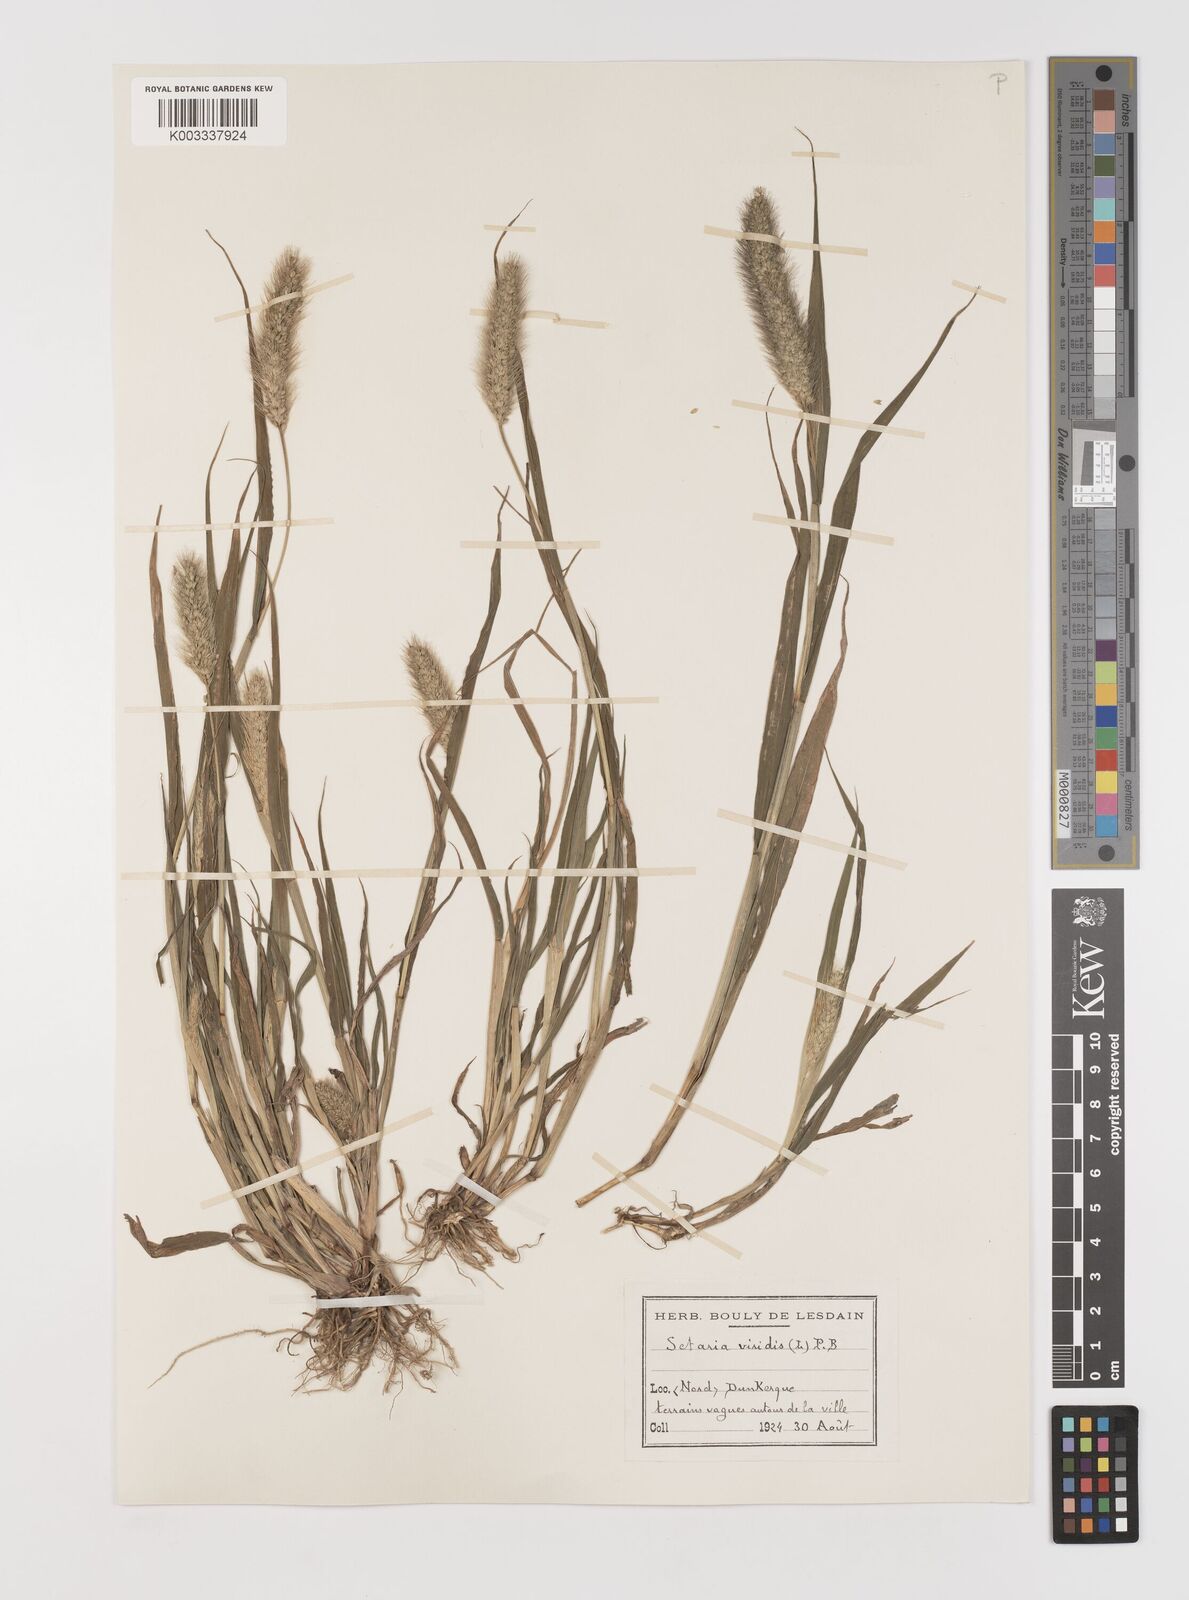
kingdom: Plantae
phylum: Tracheophyta
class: Liliopsida
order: Poales
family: Poaceae
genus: Setaria
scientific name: Setaria viridis
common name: Green bristlegrass
